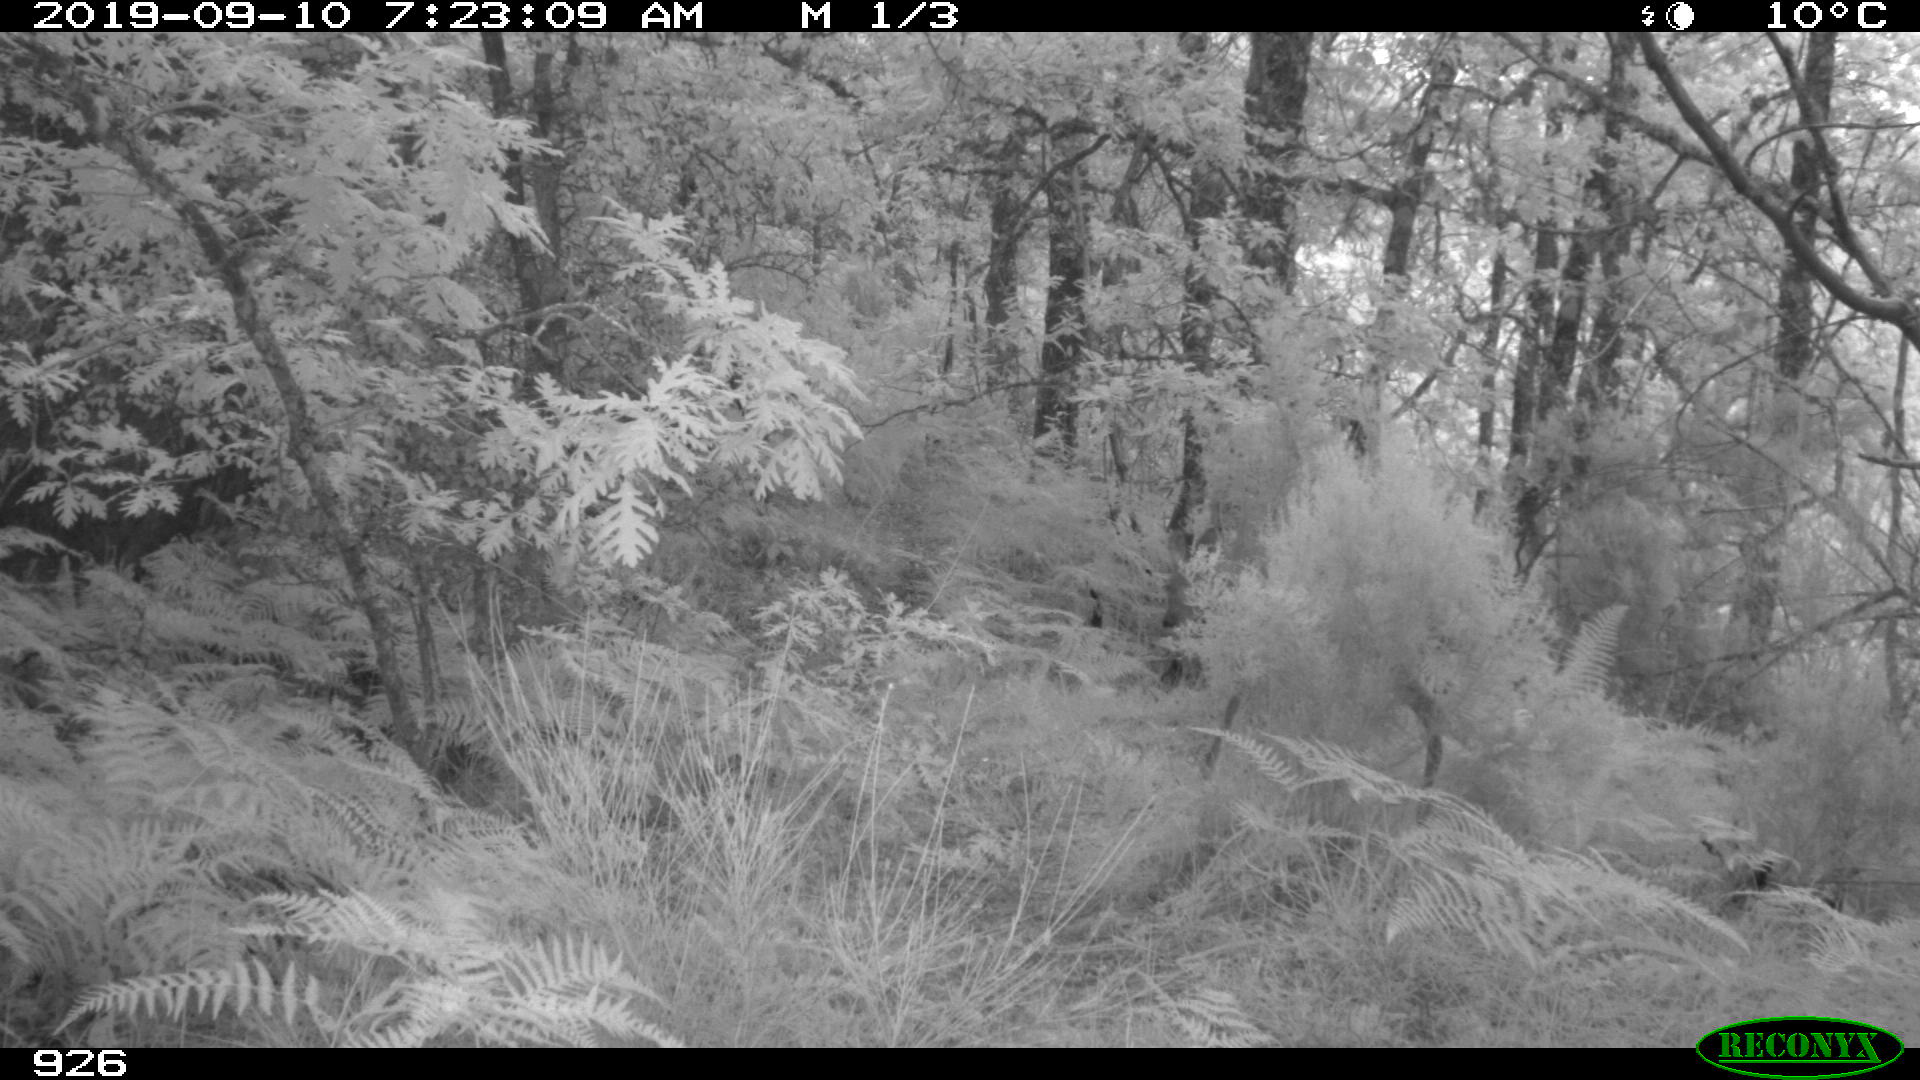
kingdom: Animalia
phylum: Chordata
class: Mammalia
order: Artiodactyla
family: Cervidae
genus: Capreolus
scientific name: Capreolus capreolus
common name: Western roe deer
